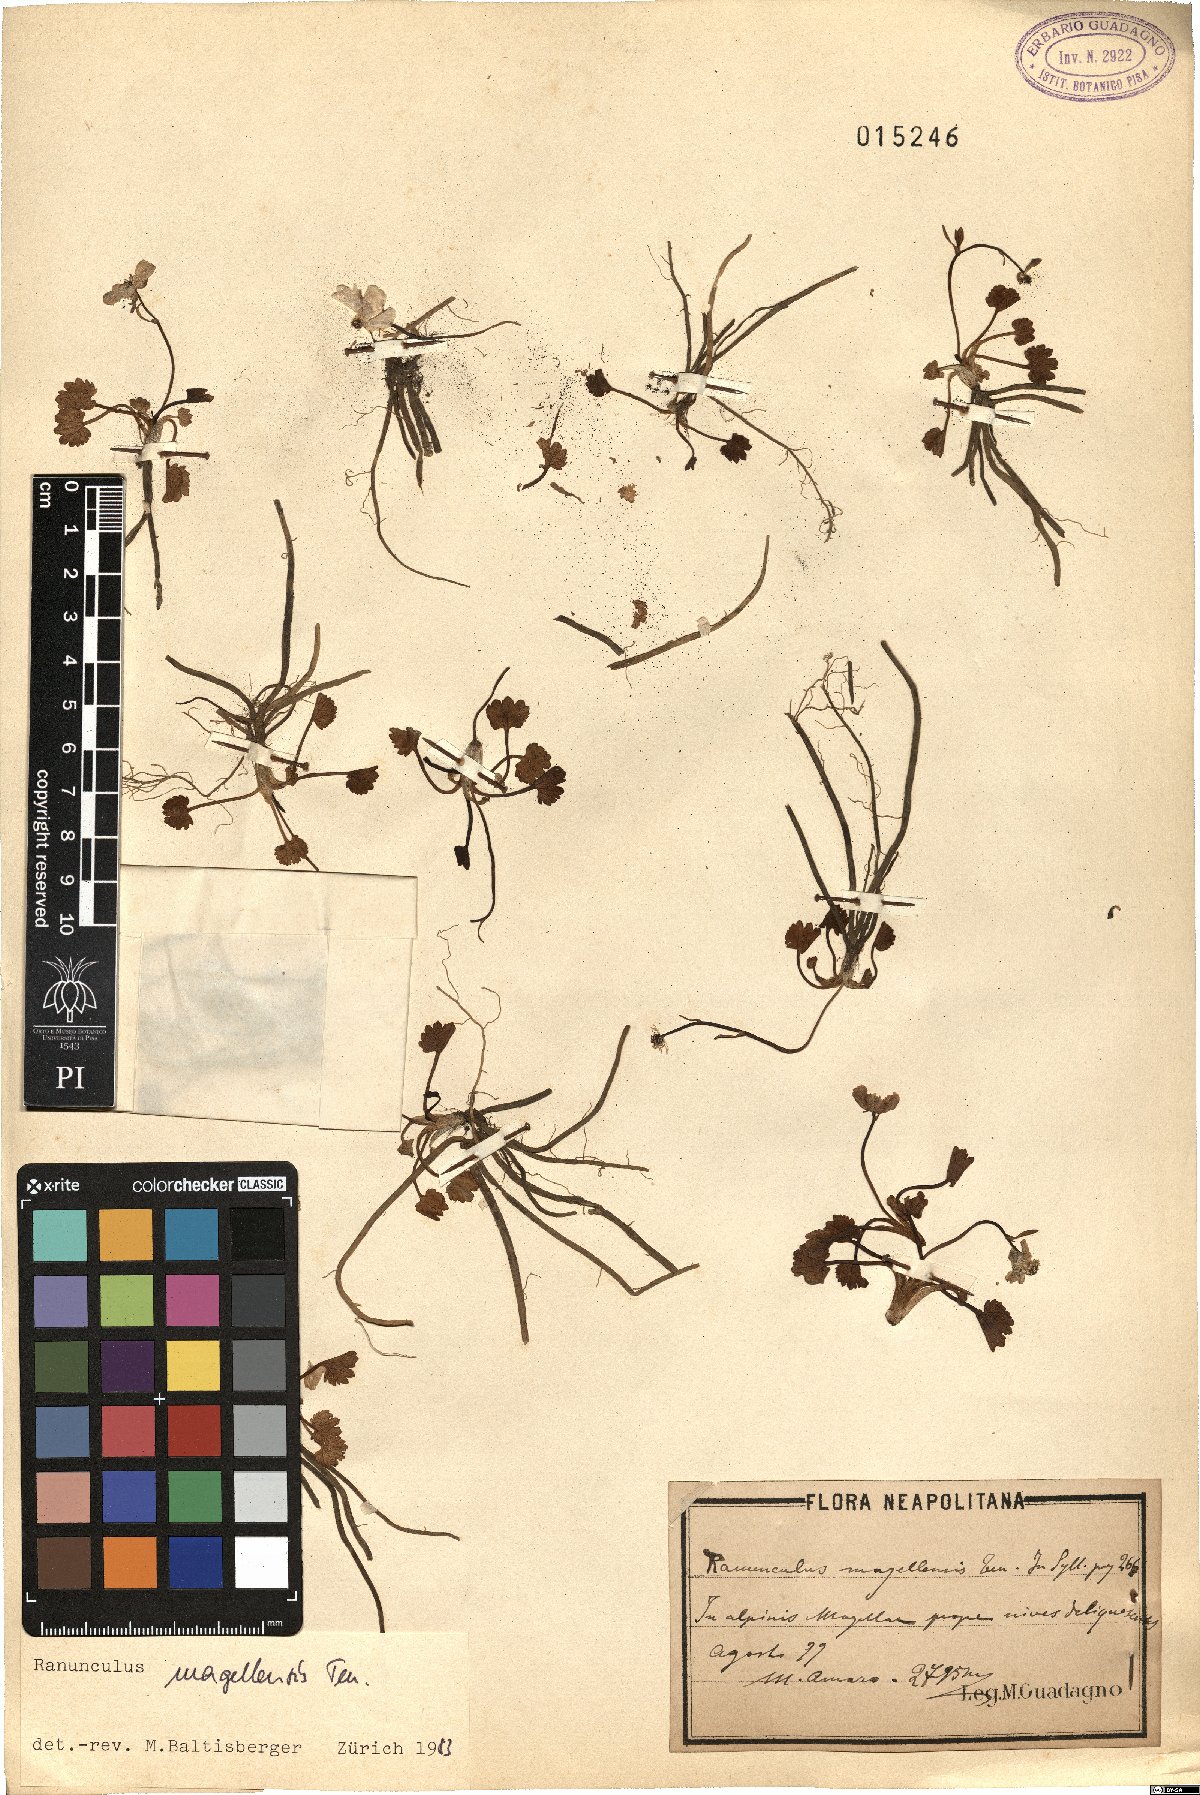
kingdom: Plantae
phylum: Tracheophyta
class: Magnoliopsida
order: Ranunculales
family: Ranunculaceae
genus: Ranunculus
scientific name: Ranunculus magellensis
